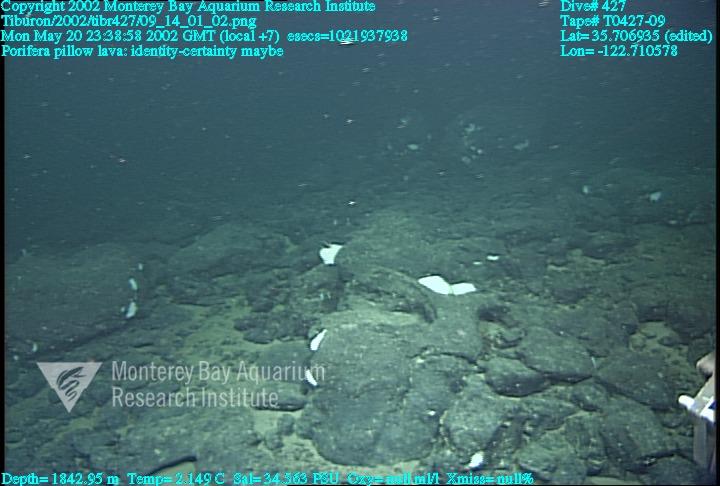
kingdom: Animalia
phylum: Porifera
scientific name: Porifera
